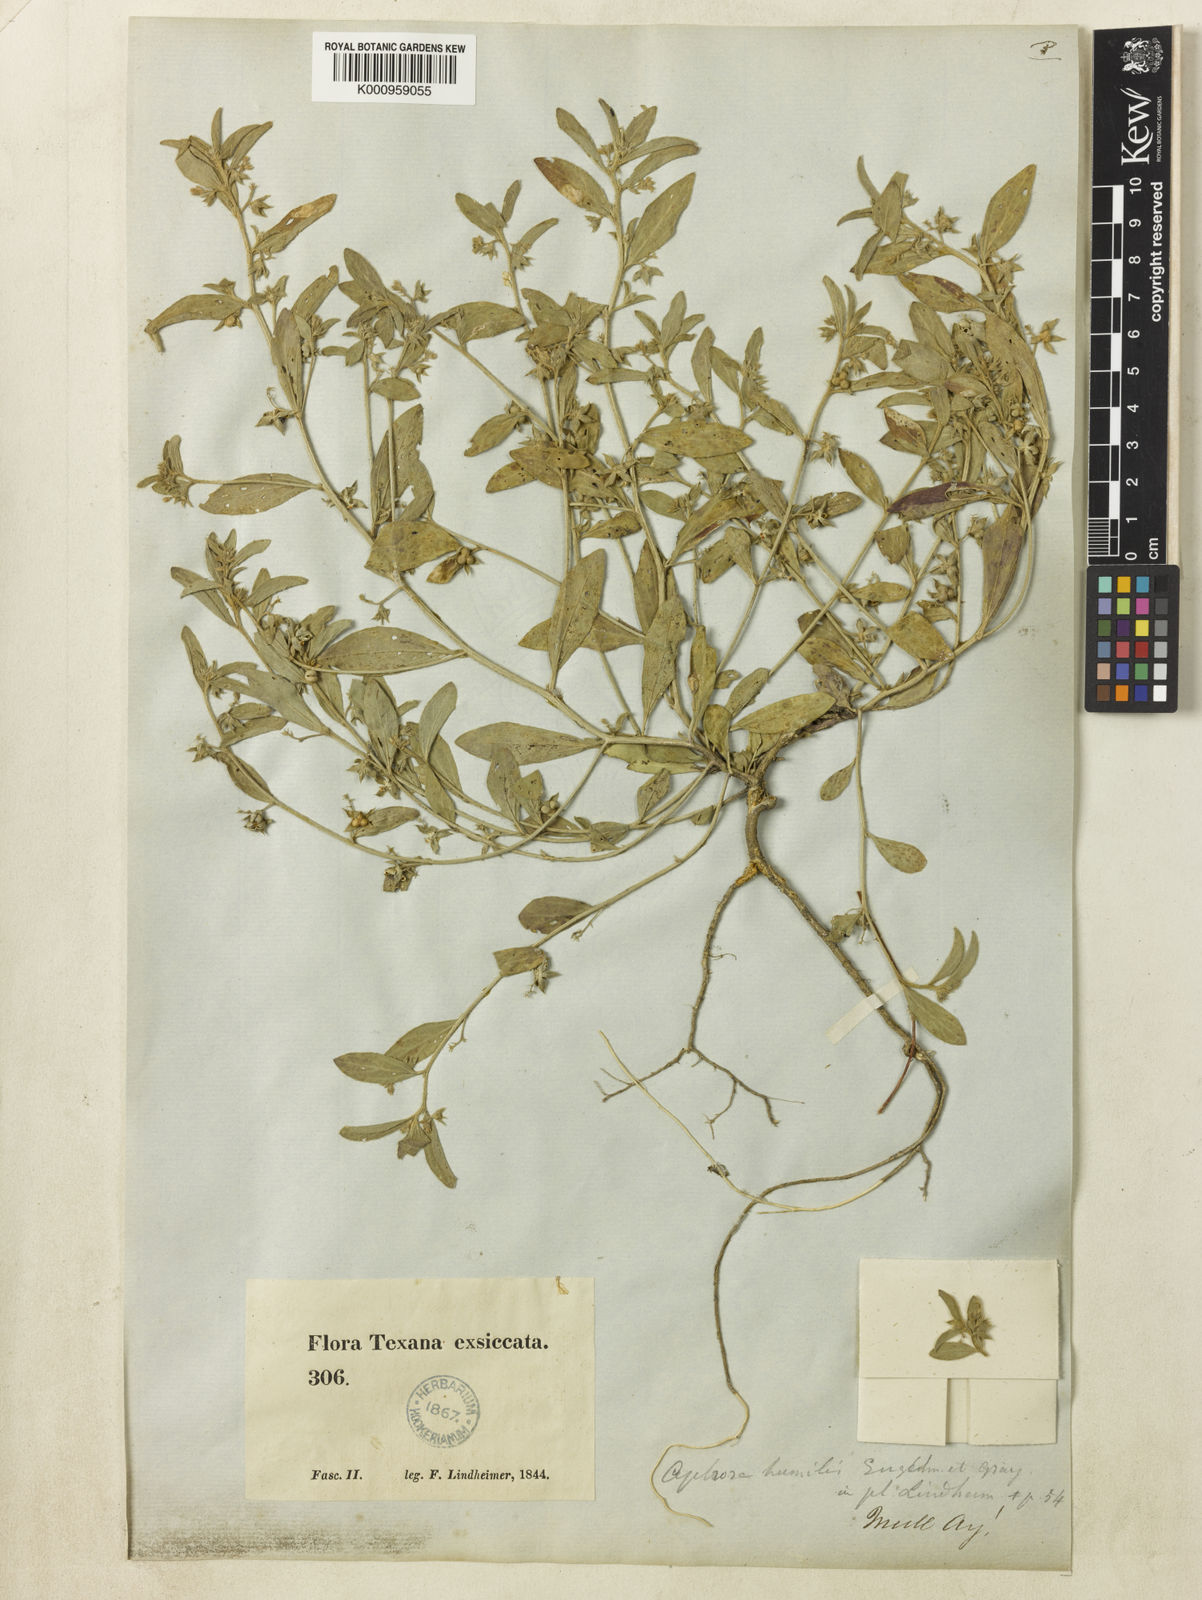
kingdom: Plantae
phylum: Tracheophyta
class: Magnoliopsida
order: Malpighiales
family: Euphorbiaceae
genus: Ditaxis
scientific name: Ditaxis humilis
